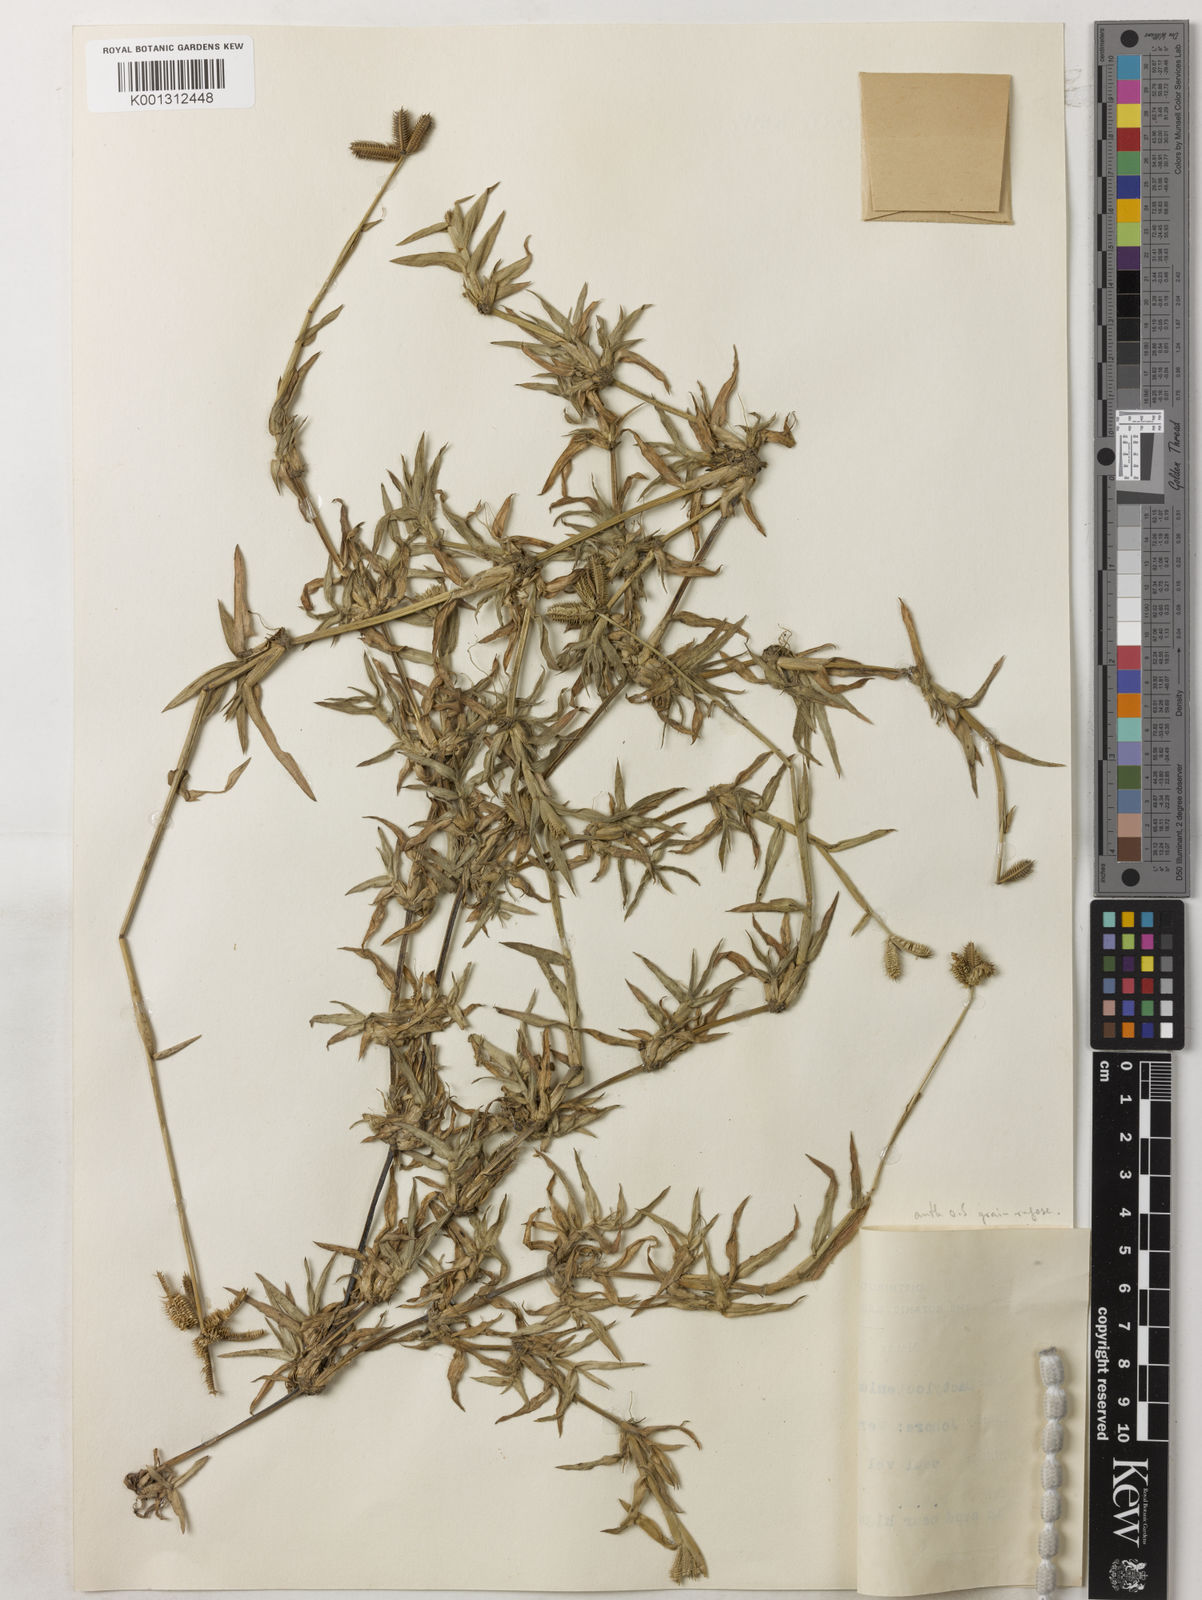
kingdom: Plantae
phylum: Tracheophyta
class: Liliopsida
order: Poales
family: Poaceae
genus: Dactyloctenium
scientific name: Dactyloctenium aegyptium
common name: Egyptian grass
